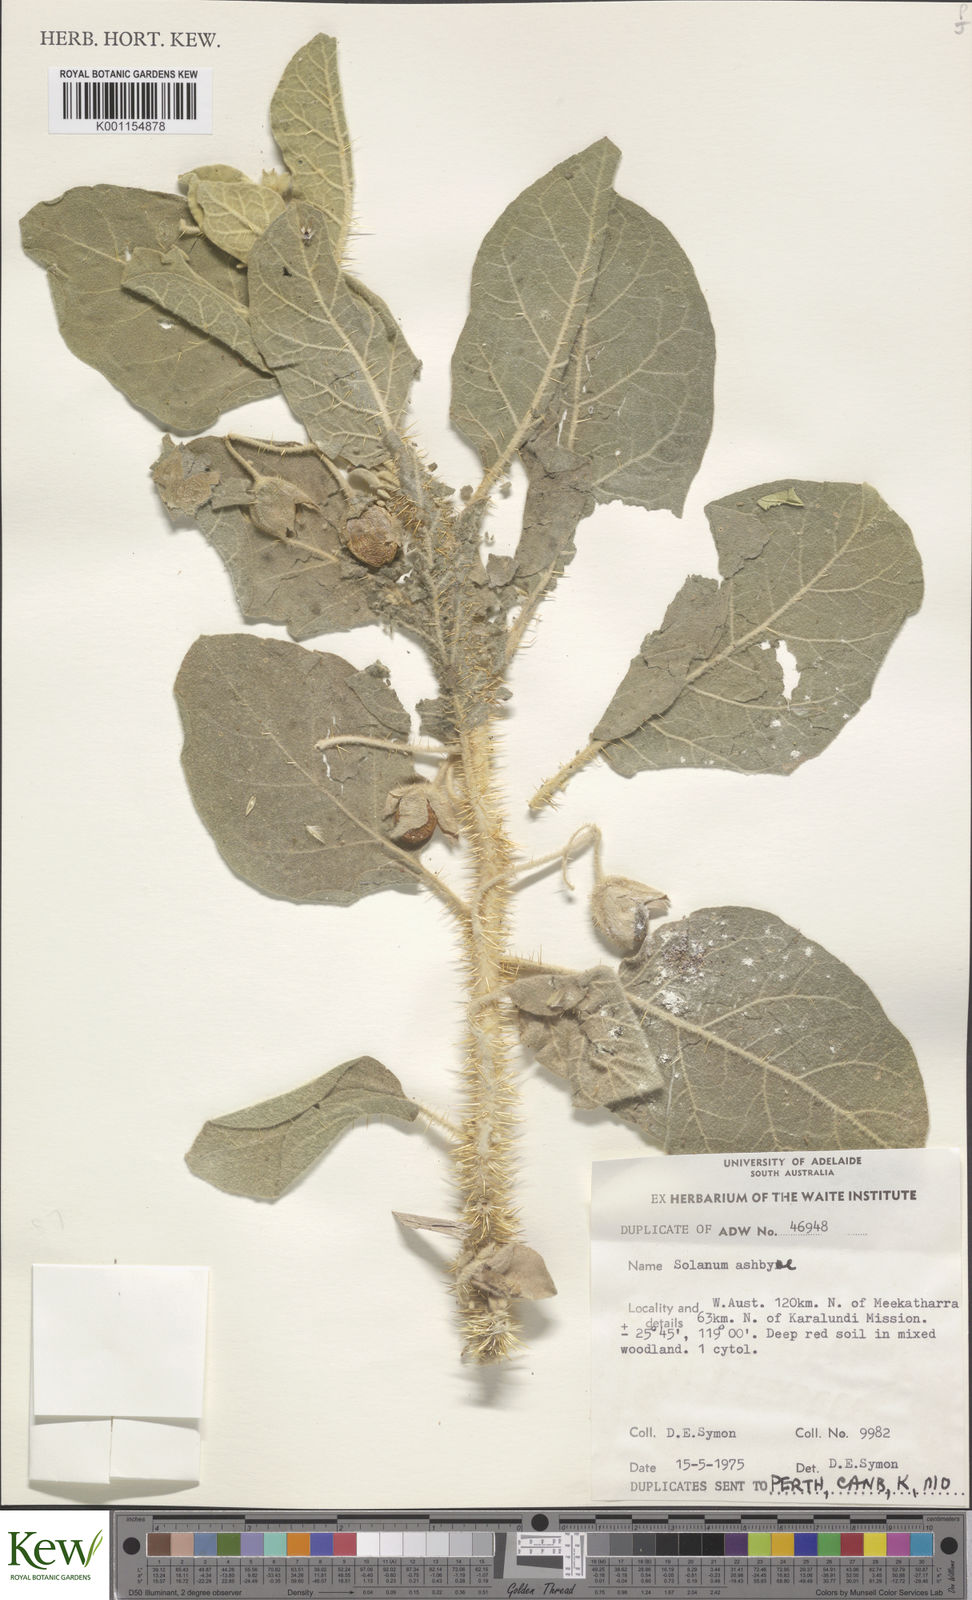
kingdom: Plantae
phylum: Tracheophyta
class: Magnoliopsida
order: Solanales
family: Solanaceae
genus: Solanum
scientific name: Solanum ashbyae
